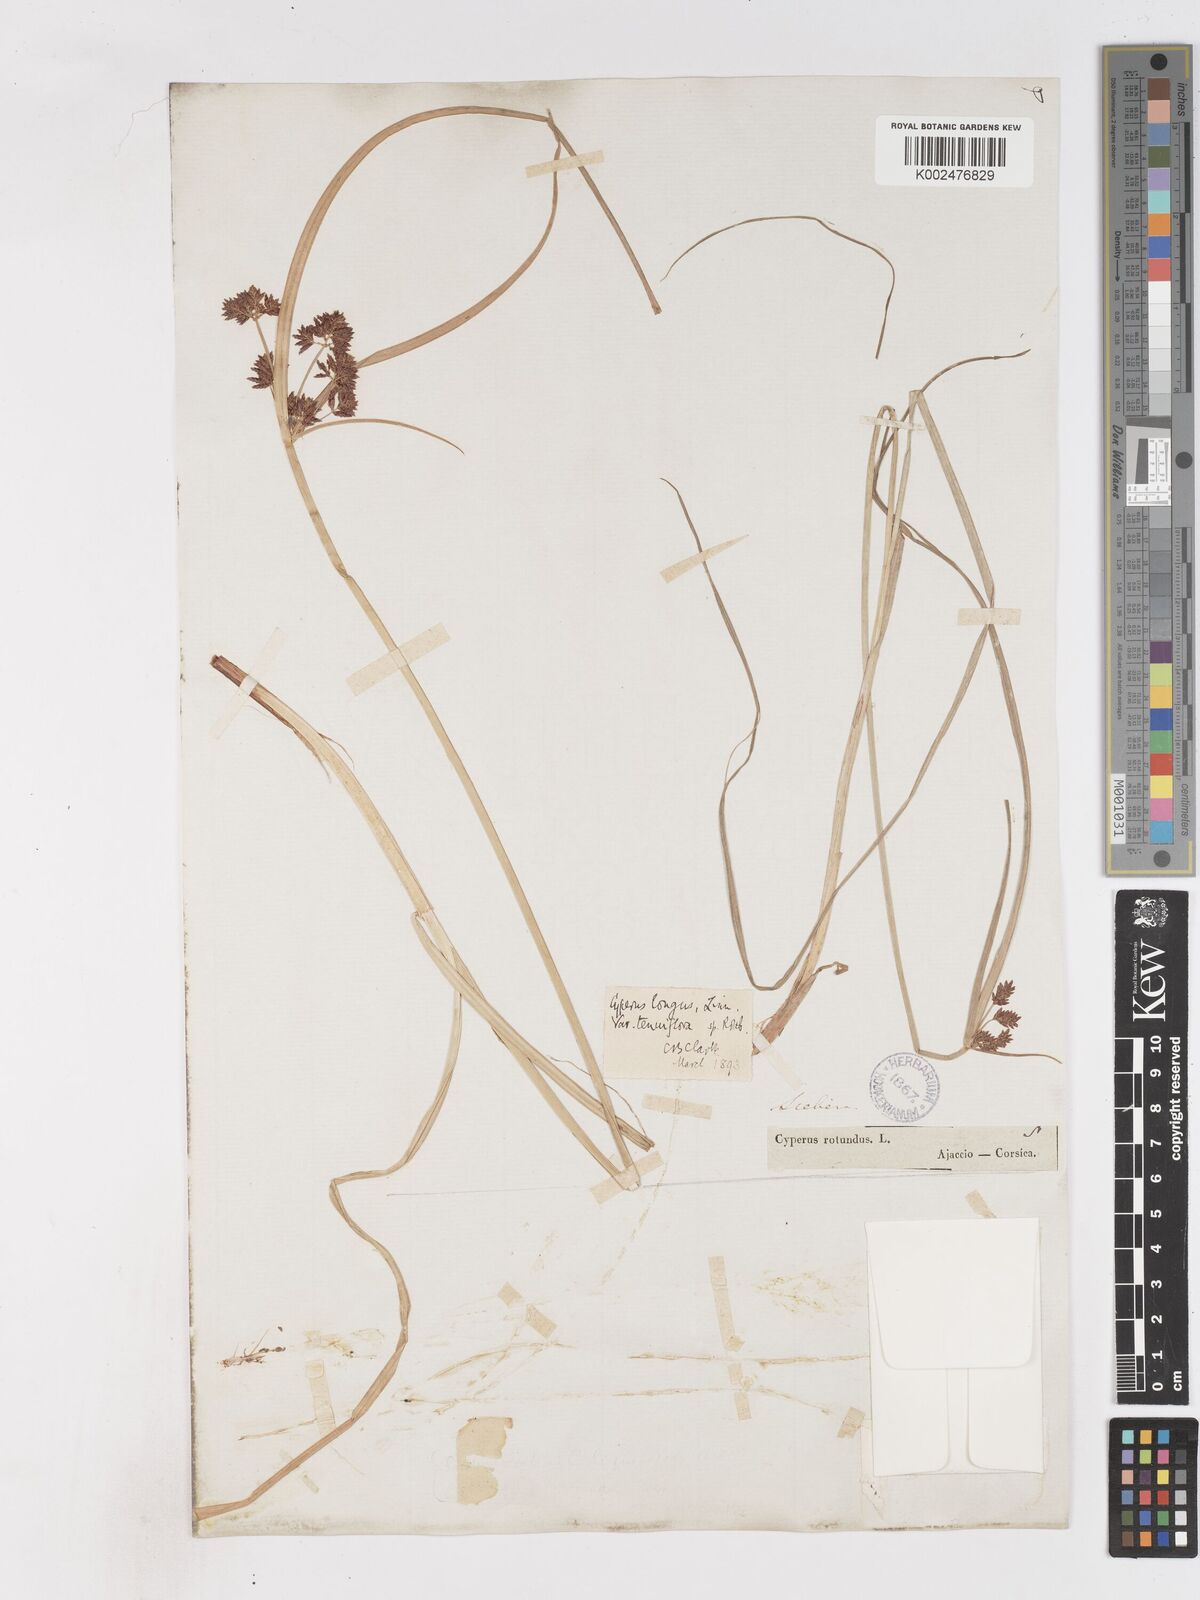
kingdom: Plantae
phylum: Tracheophyta
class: Liliopsida
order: Poales
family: Cyperaceae
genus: Cyperus
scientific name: Cyperus longus
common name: Galingale
